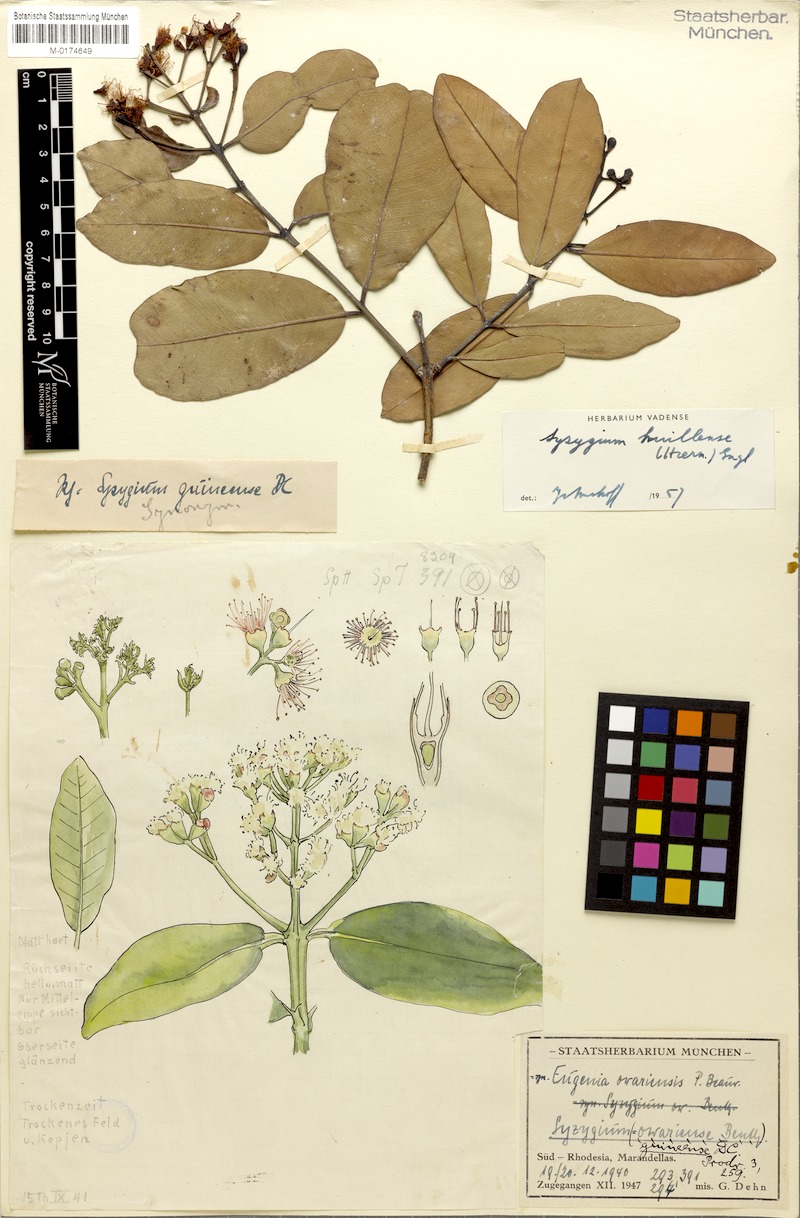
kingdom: Plantae
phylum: Tracheophyta
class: Magnoliopsida
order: Myrtales
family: Myrtaceae
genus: Syzygium
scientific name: Syzygium guineense
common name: Water-pear
